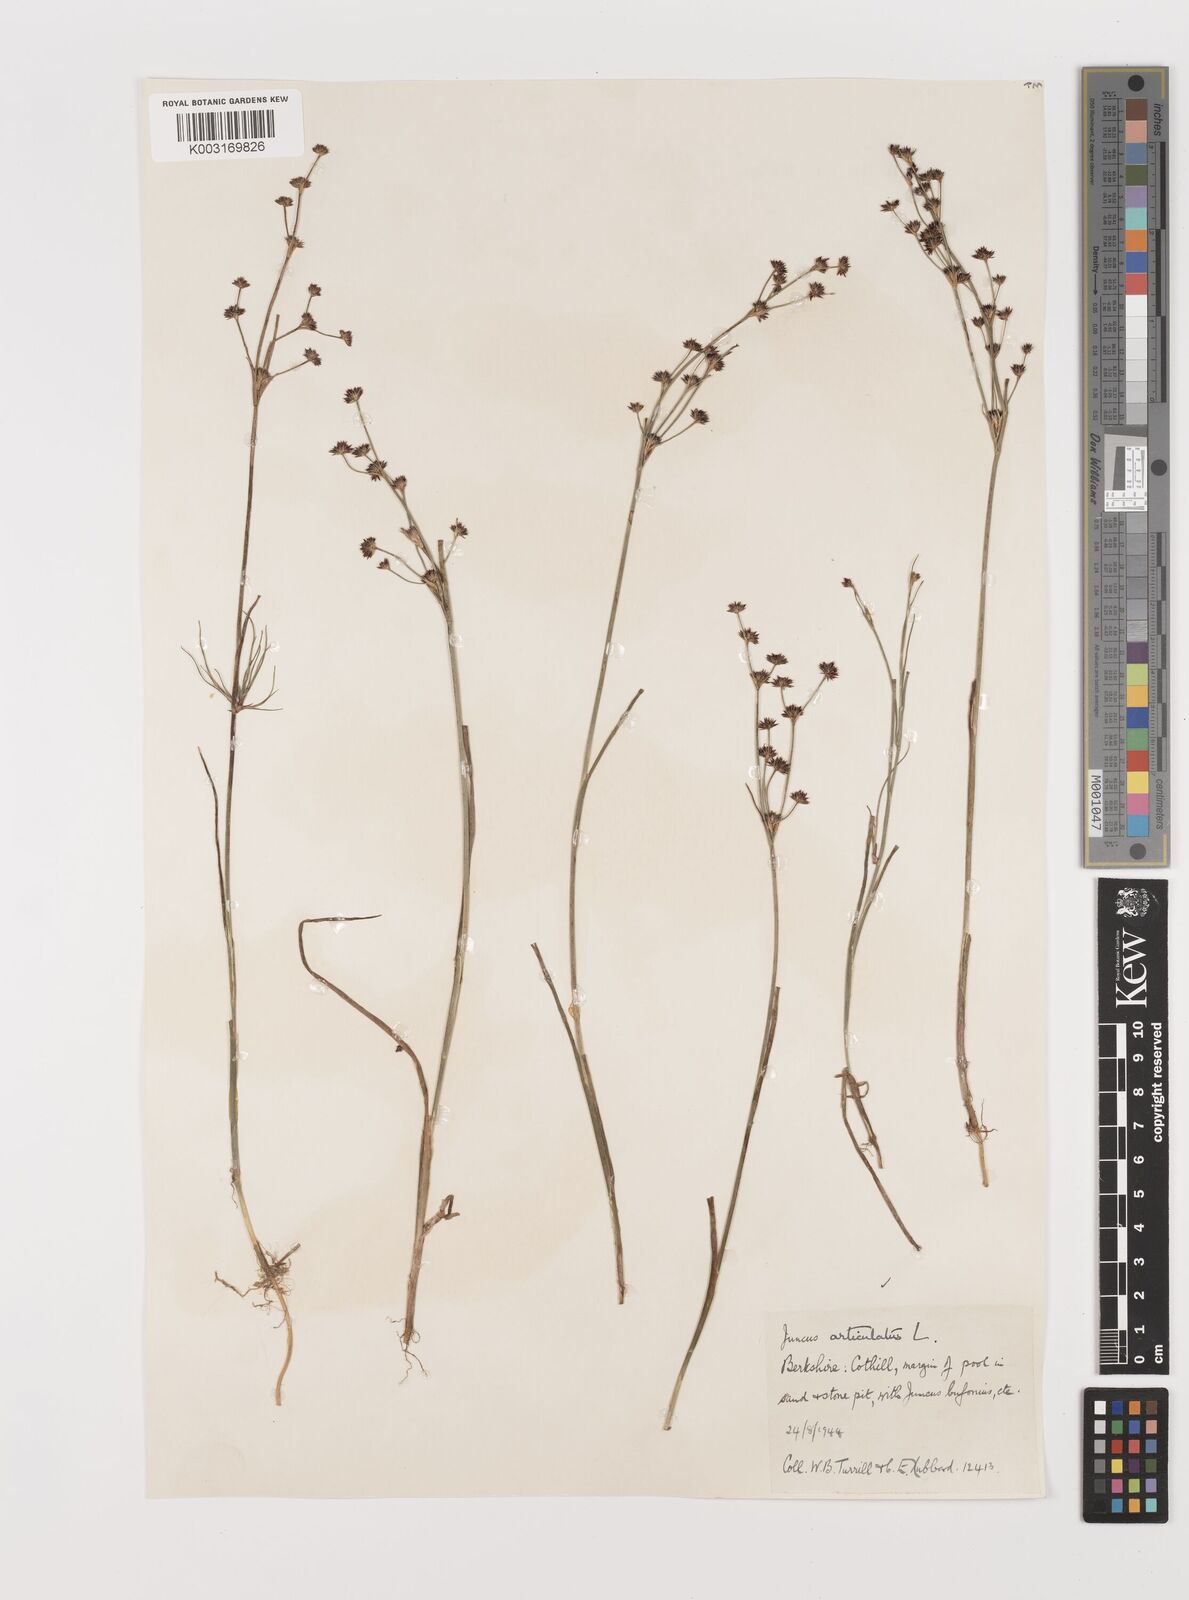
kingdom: Plantae
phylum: Tracheophyta
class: Liliopsida
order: Poales
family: Juncaceae
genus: Juncus
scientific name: Juncus articulatus
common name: Jointed rush
